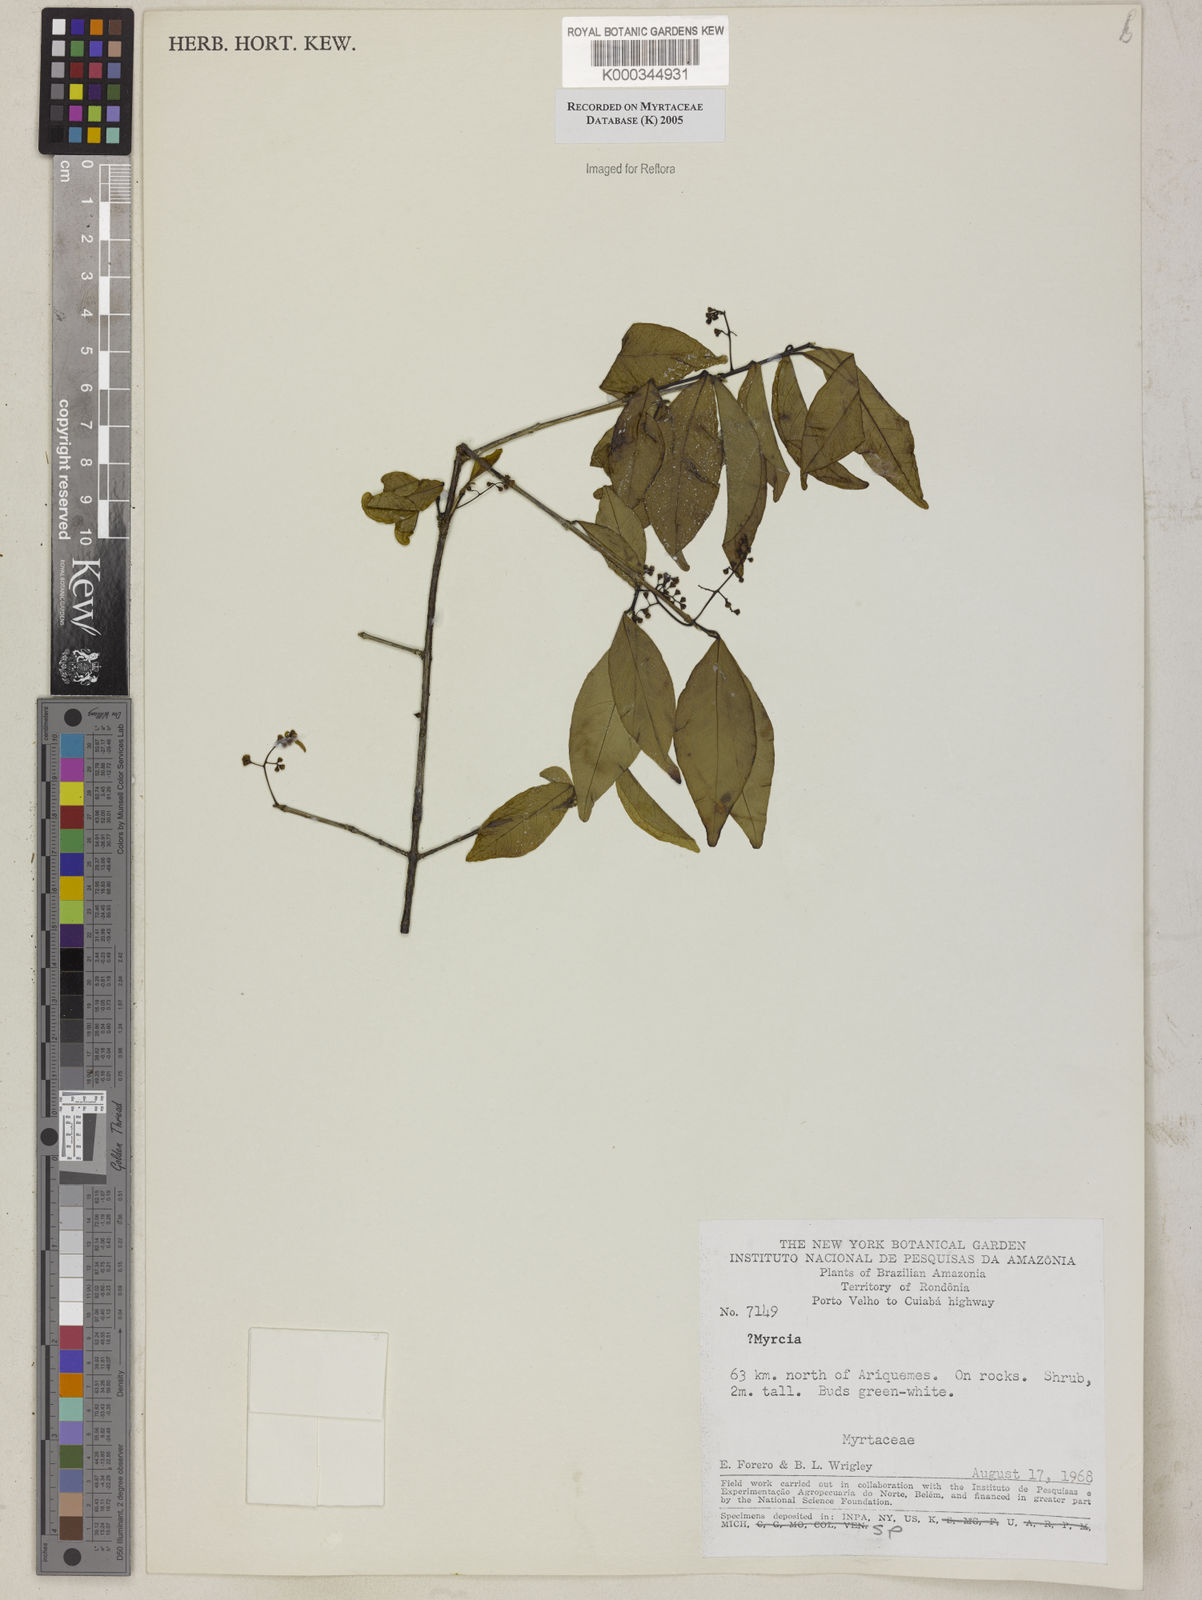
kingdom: Plantae
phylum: Tracheophyta
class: Magnoliopsida
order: Myrtales
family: Myrtaceae
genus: Myrcia
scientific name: Myrcia
